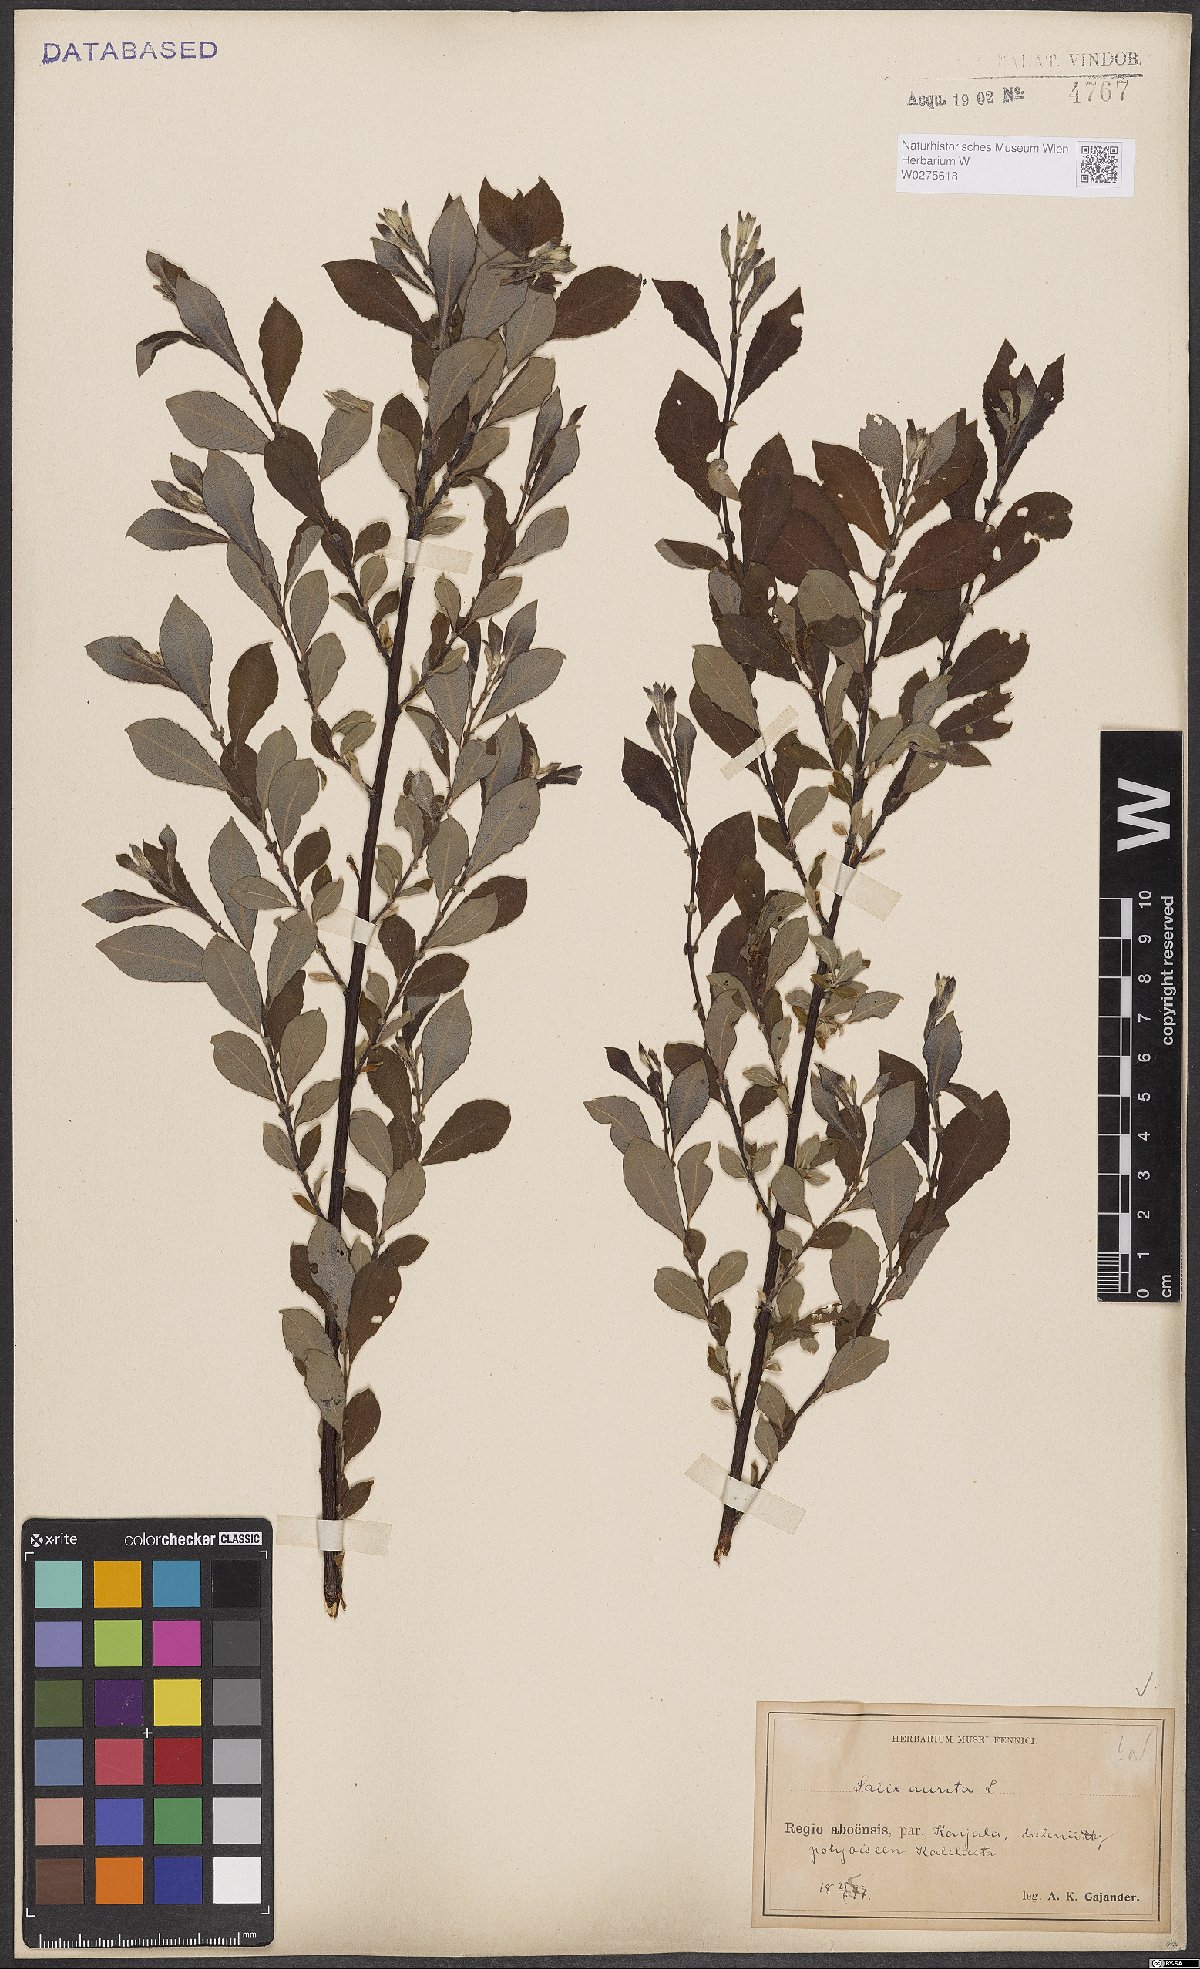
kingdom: Plantae
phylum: Tracheophyta
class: Magnoliopsida
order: Malpighiales
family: Salicaceae
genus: Salix
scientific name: Salix aurita
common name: Eared willow
